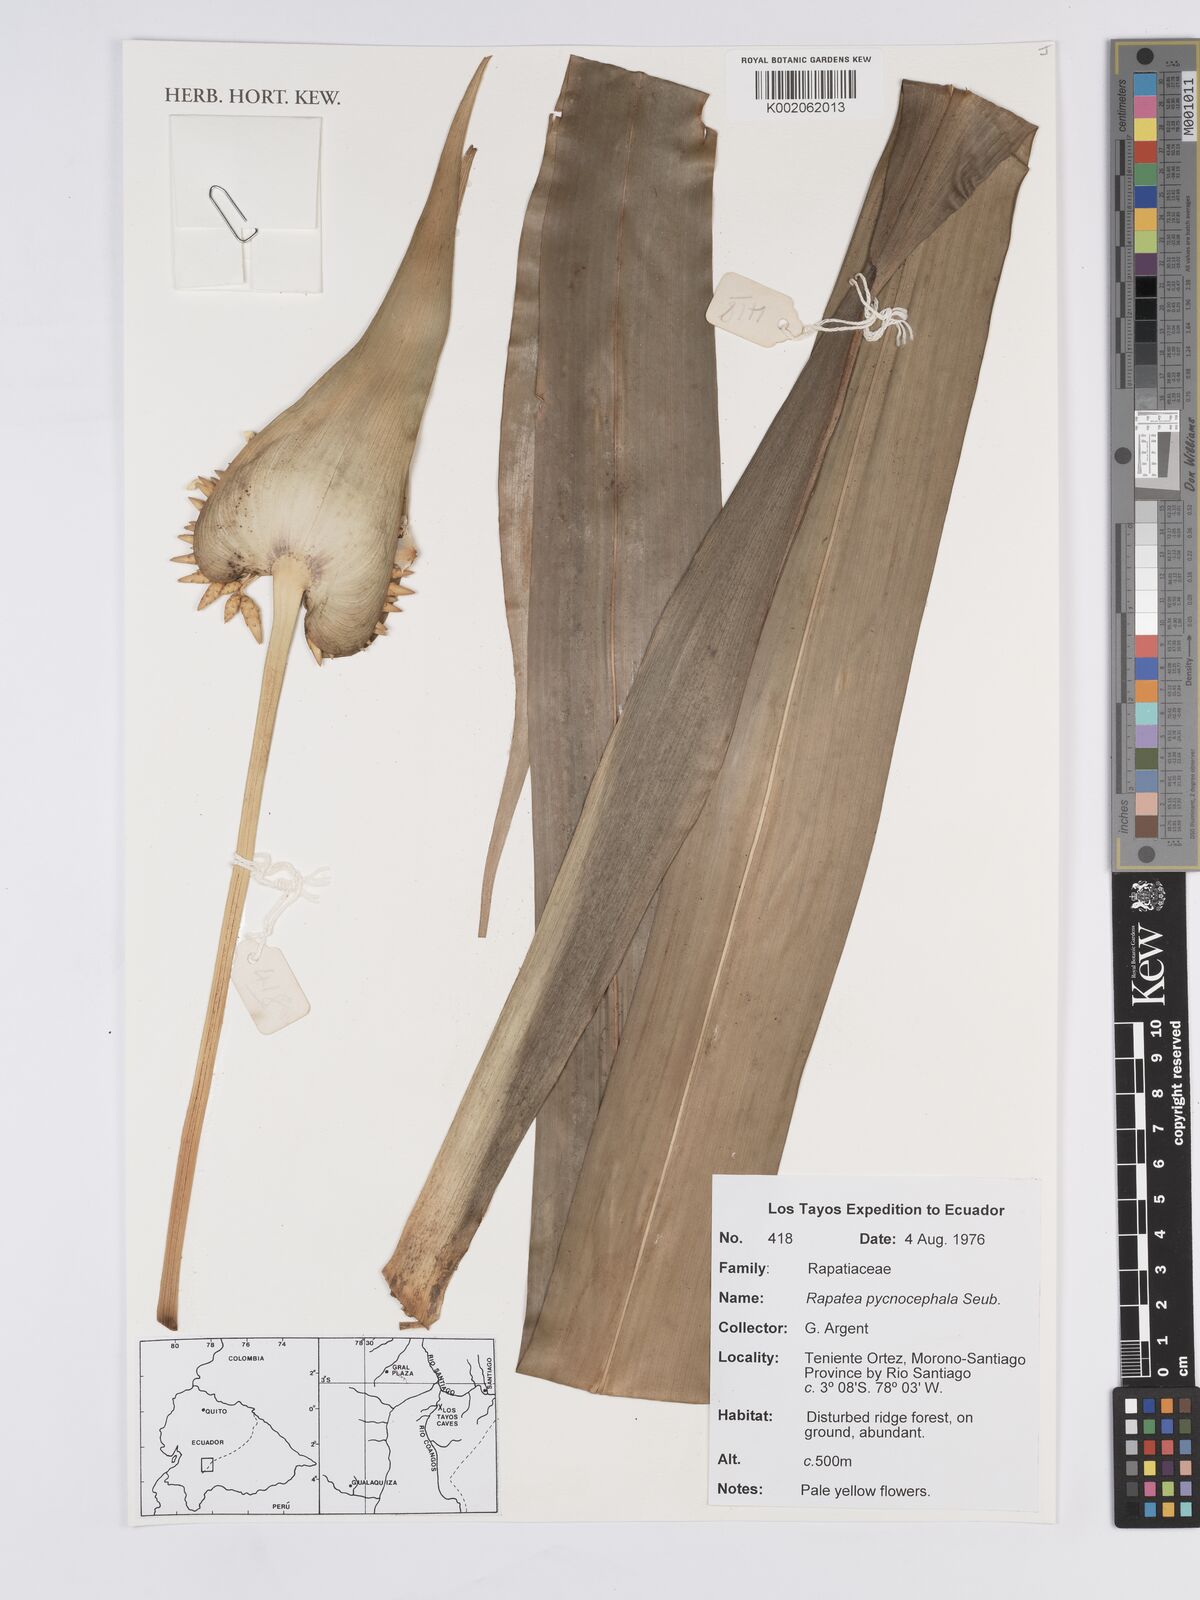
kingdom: Plantae
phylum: Tracheophyta
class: Liliopsida
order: Poales
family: Rapateaceae
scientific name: Rapateaceae
